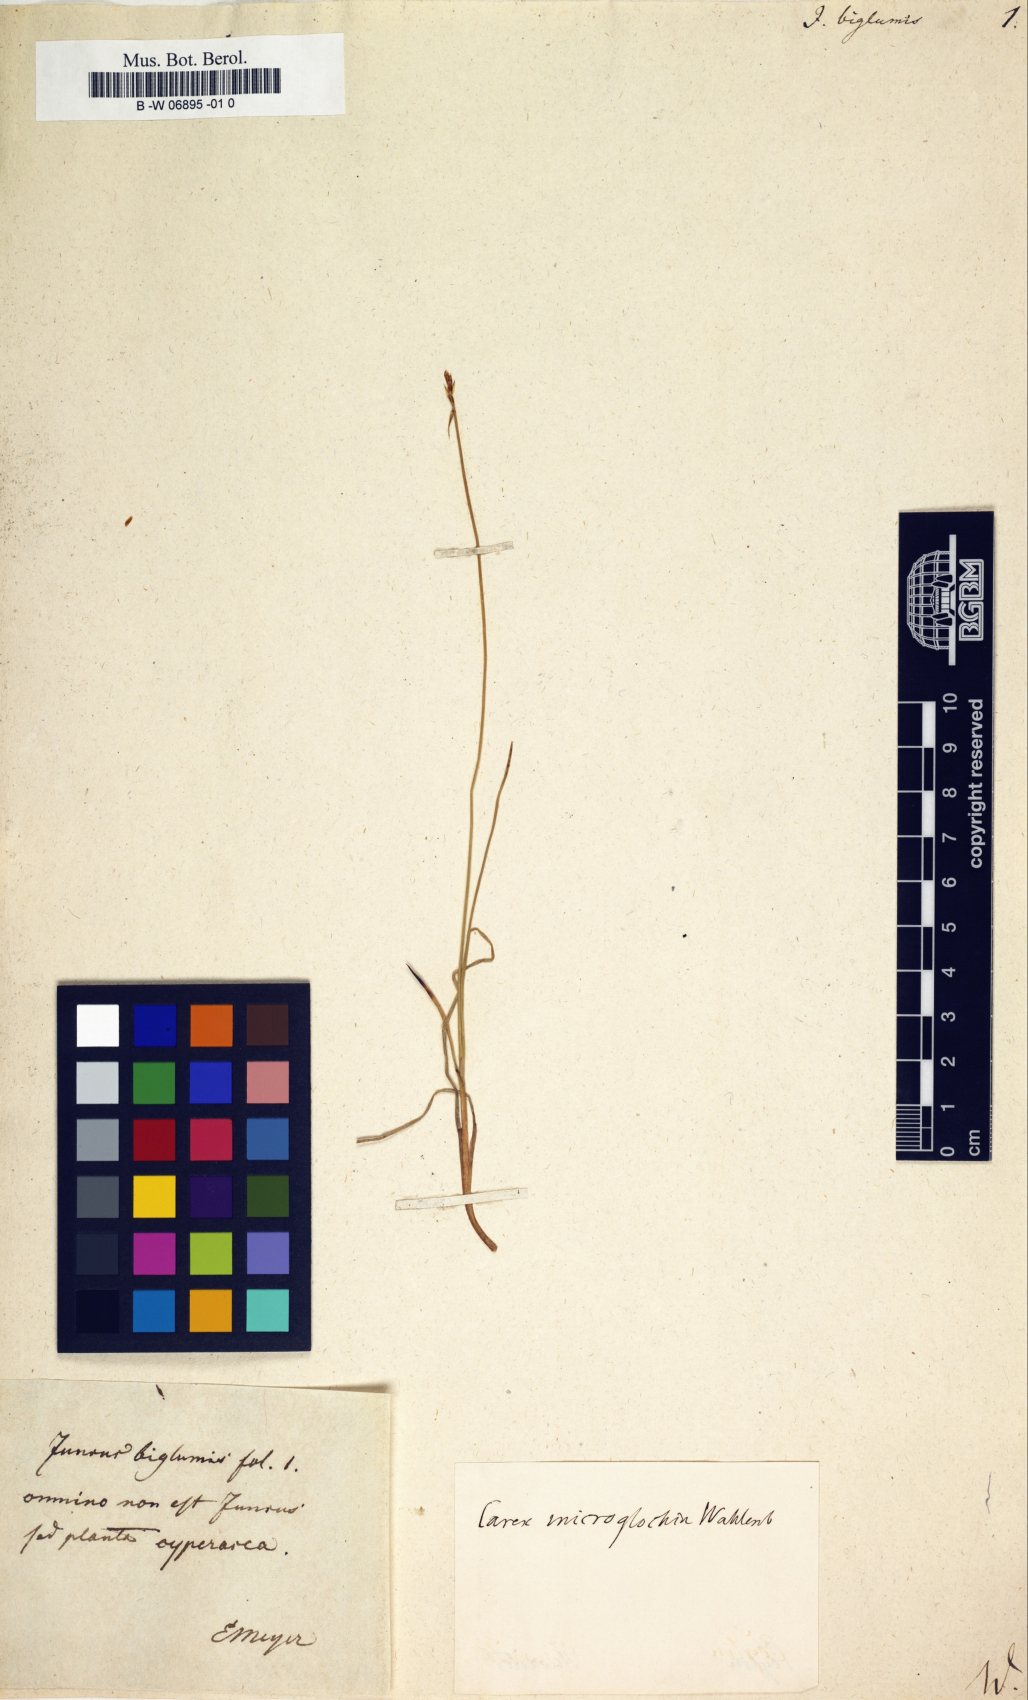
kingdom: Plantae
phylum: Tracheophyta
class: Liliopsida
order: Poales
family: Juncaceae
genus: Juncus
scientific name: Juncus biglumis
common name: Two-flowered rush
